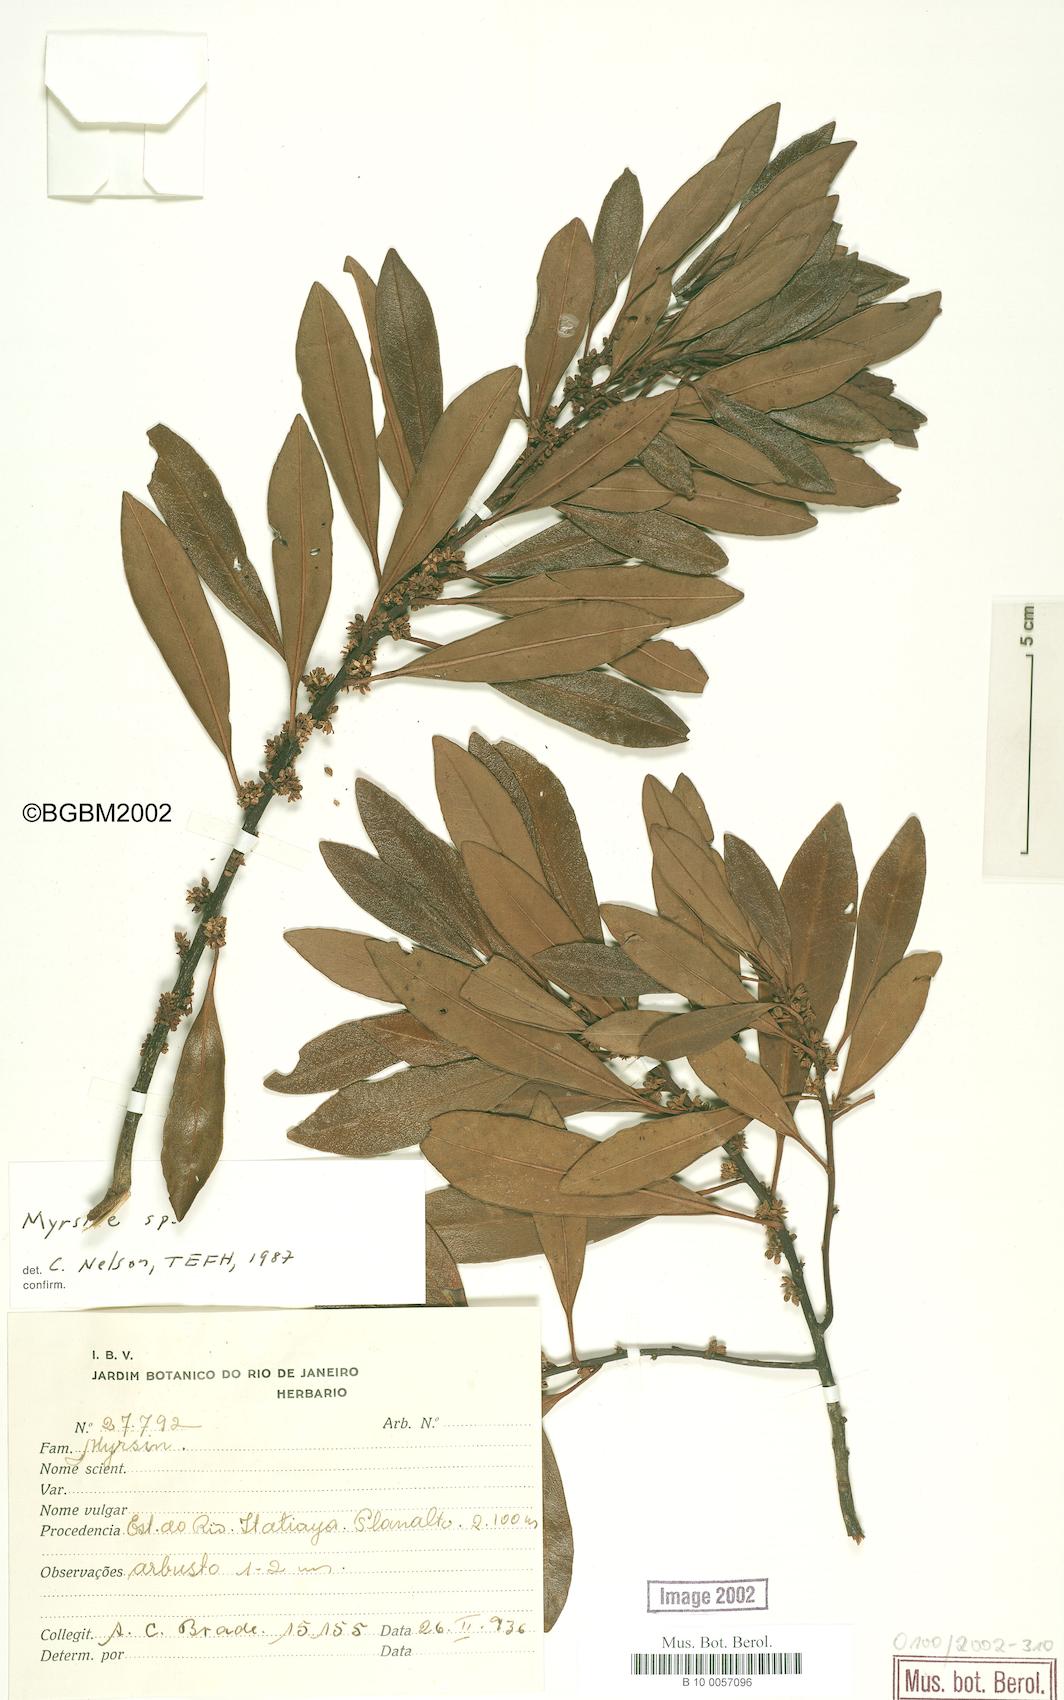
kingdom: Plantae
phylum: Tracheophyta
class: Magnoliopsida
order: Ericales
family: Primulaceae
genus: Myrsine
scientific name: Myrsine
